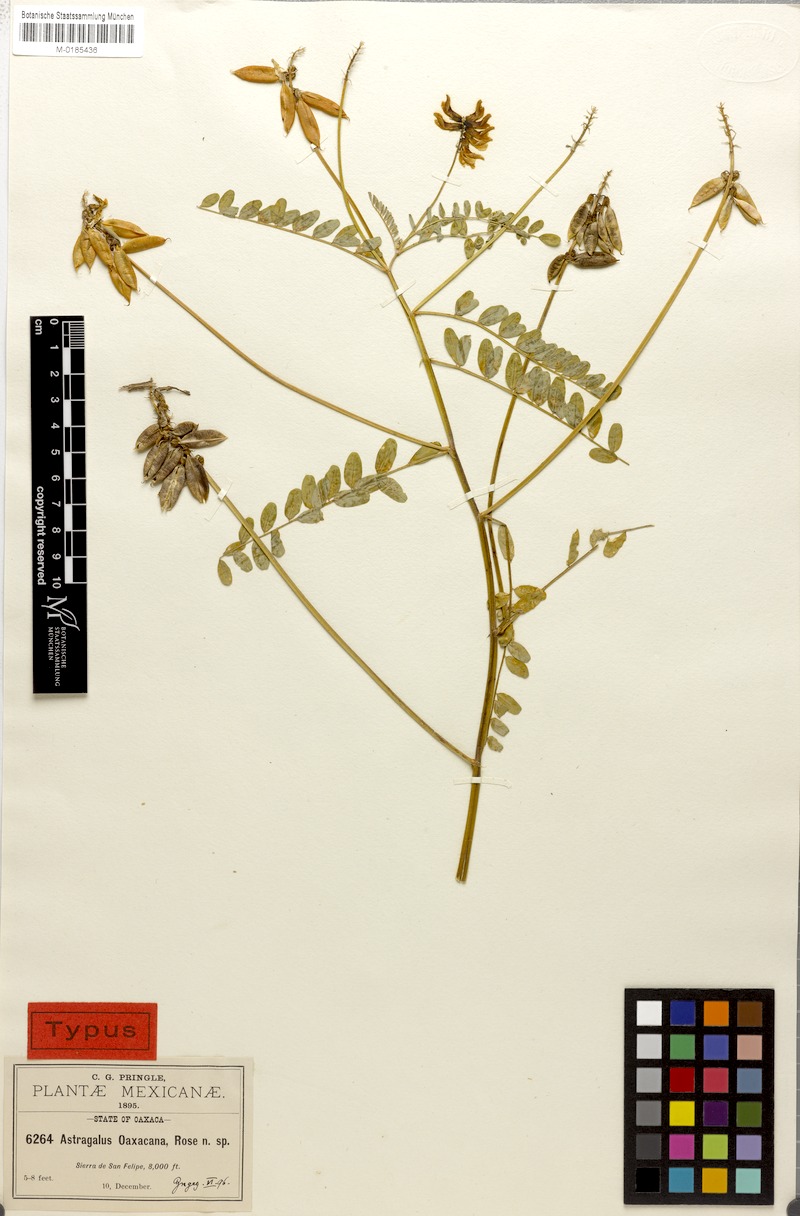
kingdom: Plantae
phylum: Tracheophyta
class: Magnoliopsida
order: Fabales
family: Fabaceae
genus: Astragalus
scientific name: Astragalus guatemalensis
